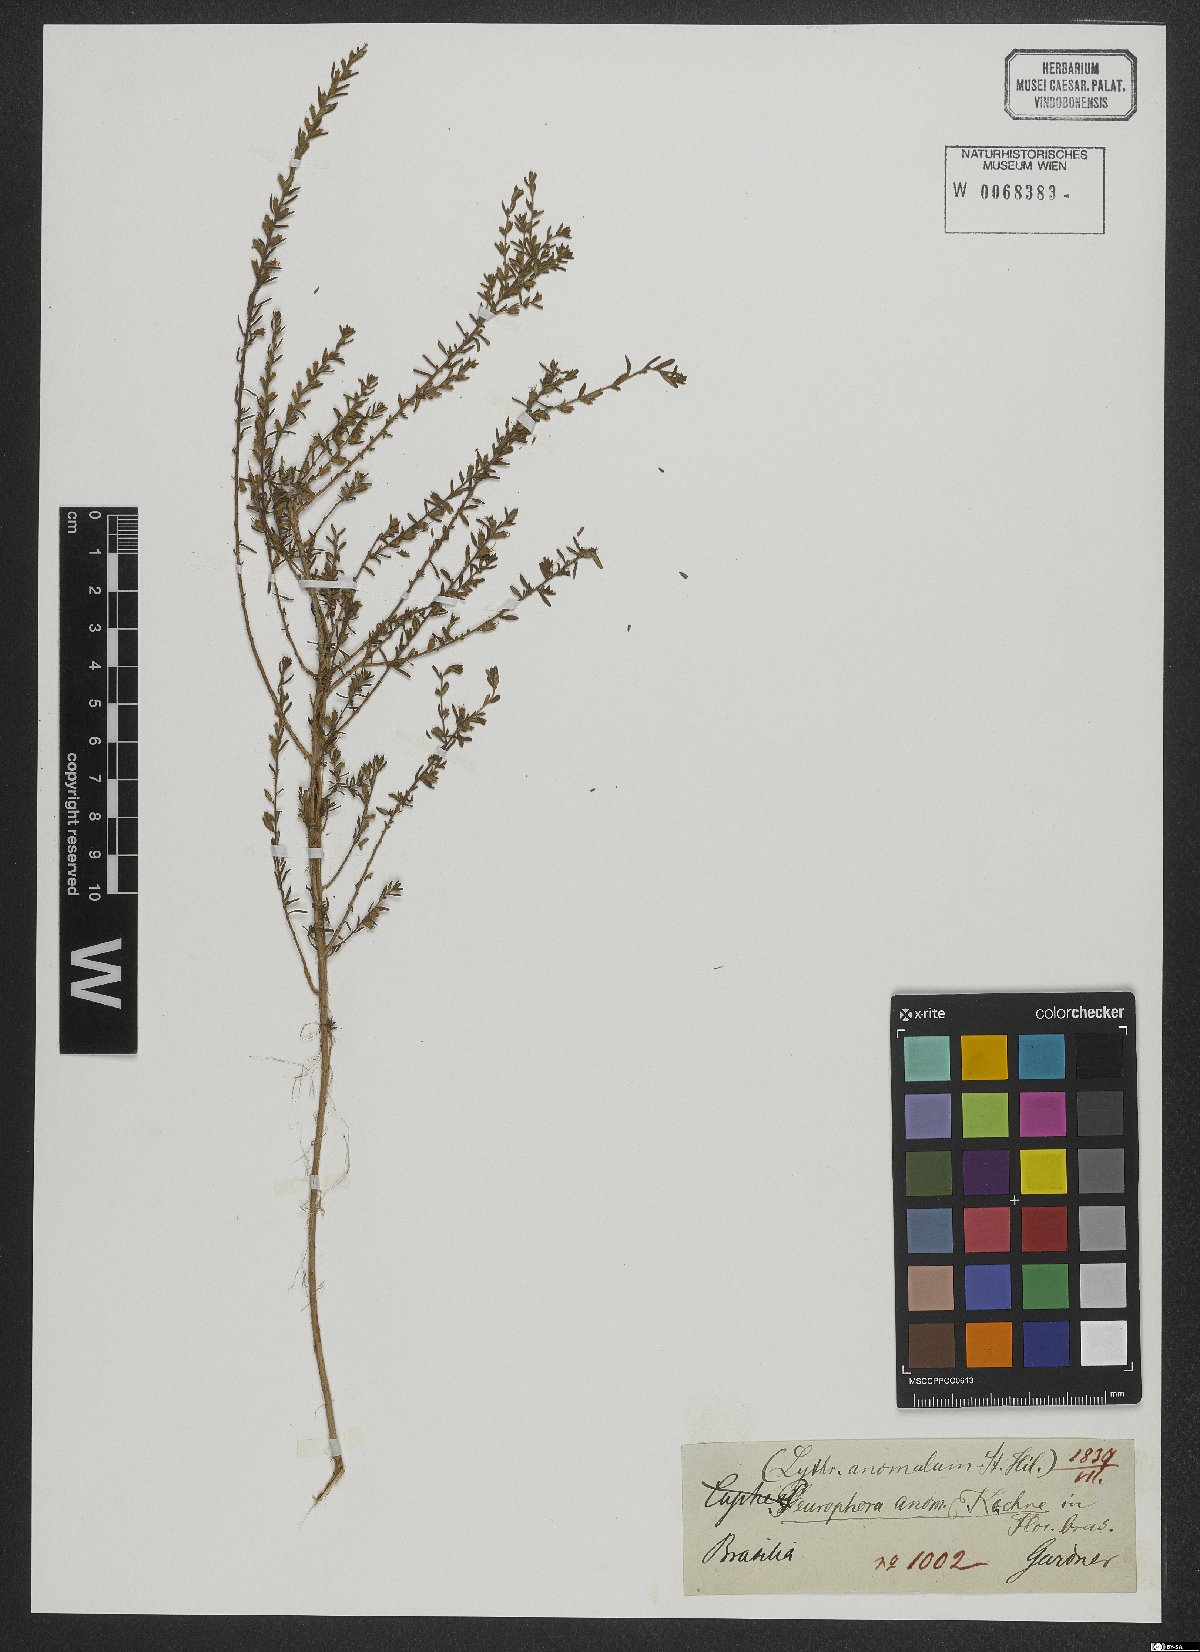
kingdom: Plantae
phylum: Tracheophyta
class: Magnoliopsida
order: Myrtales
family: Lythraceae
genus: Pleurophora
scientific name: Pleurophora anomala
